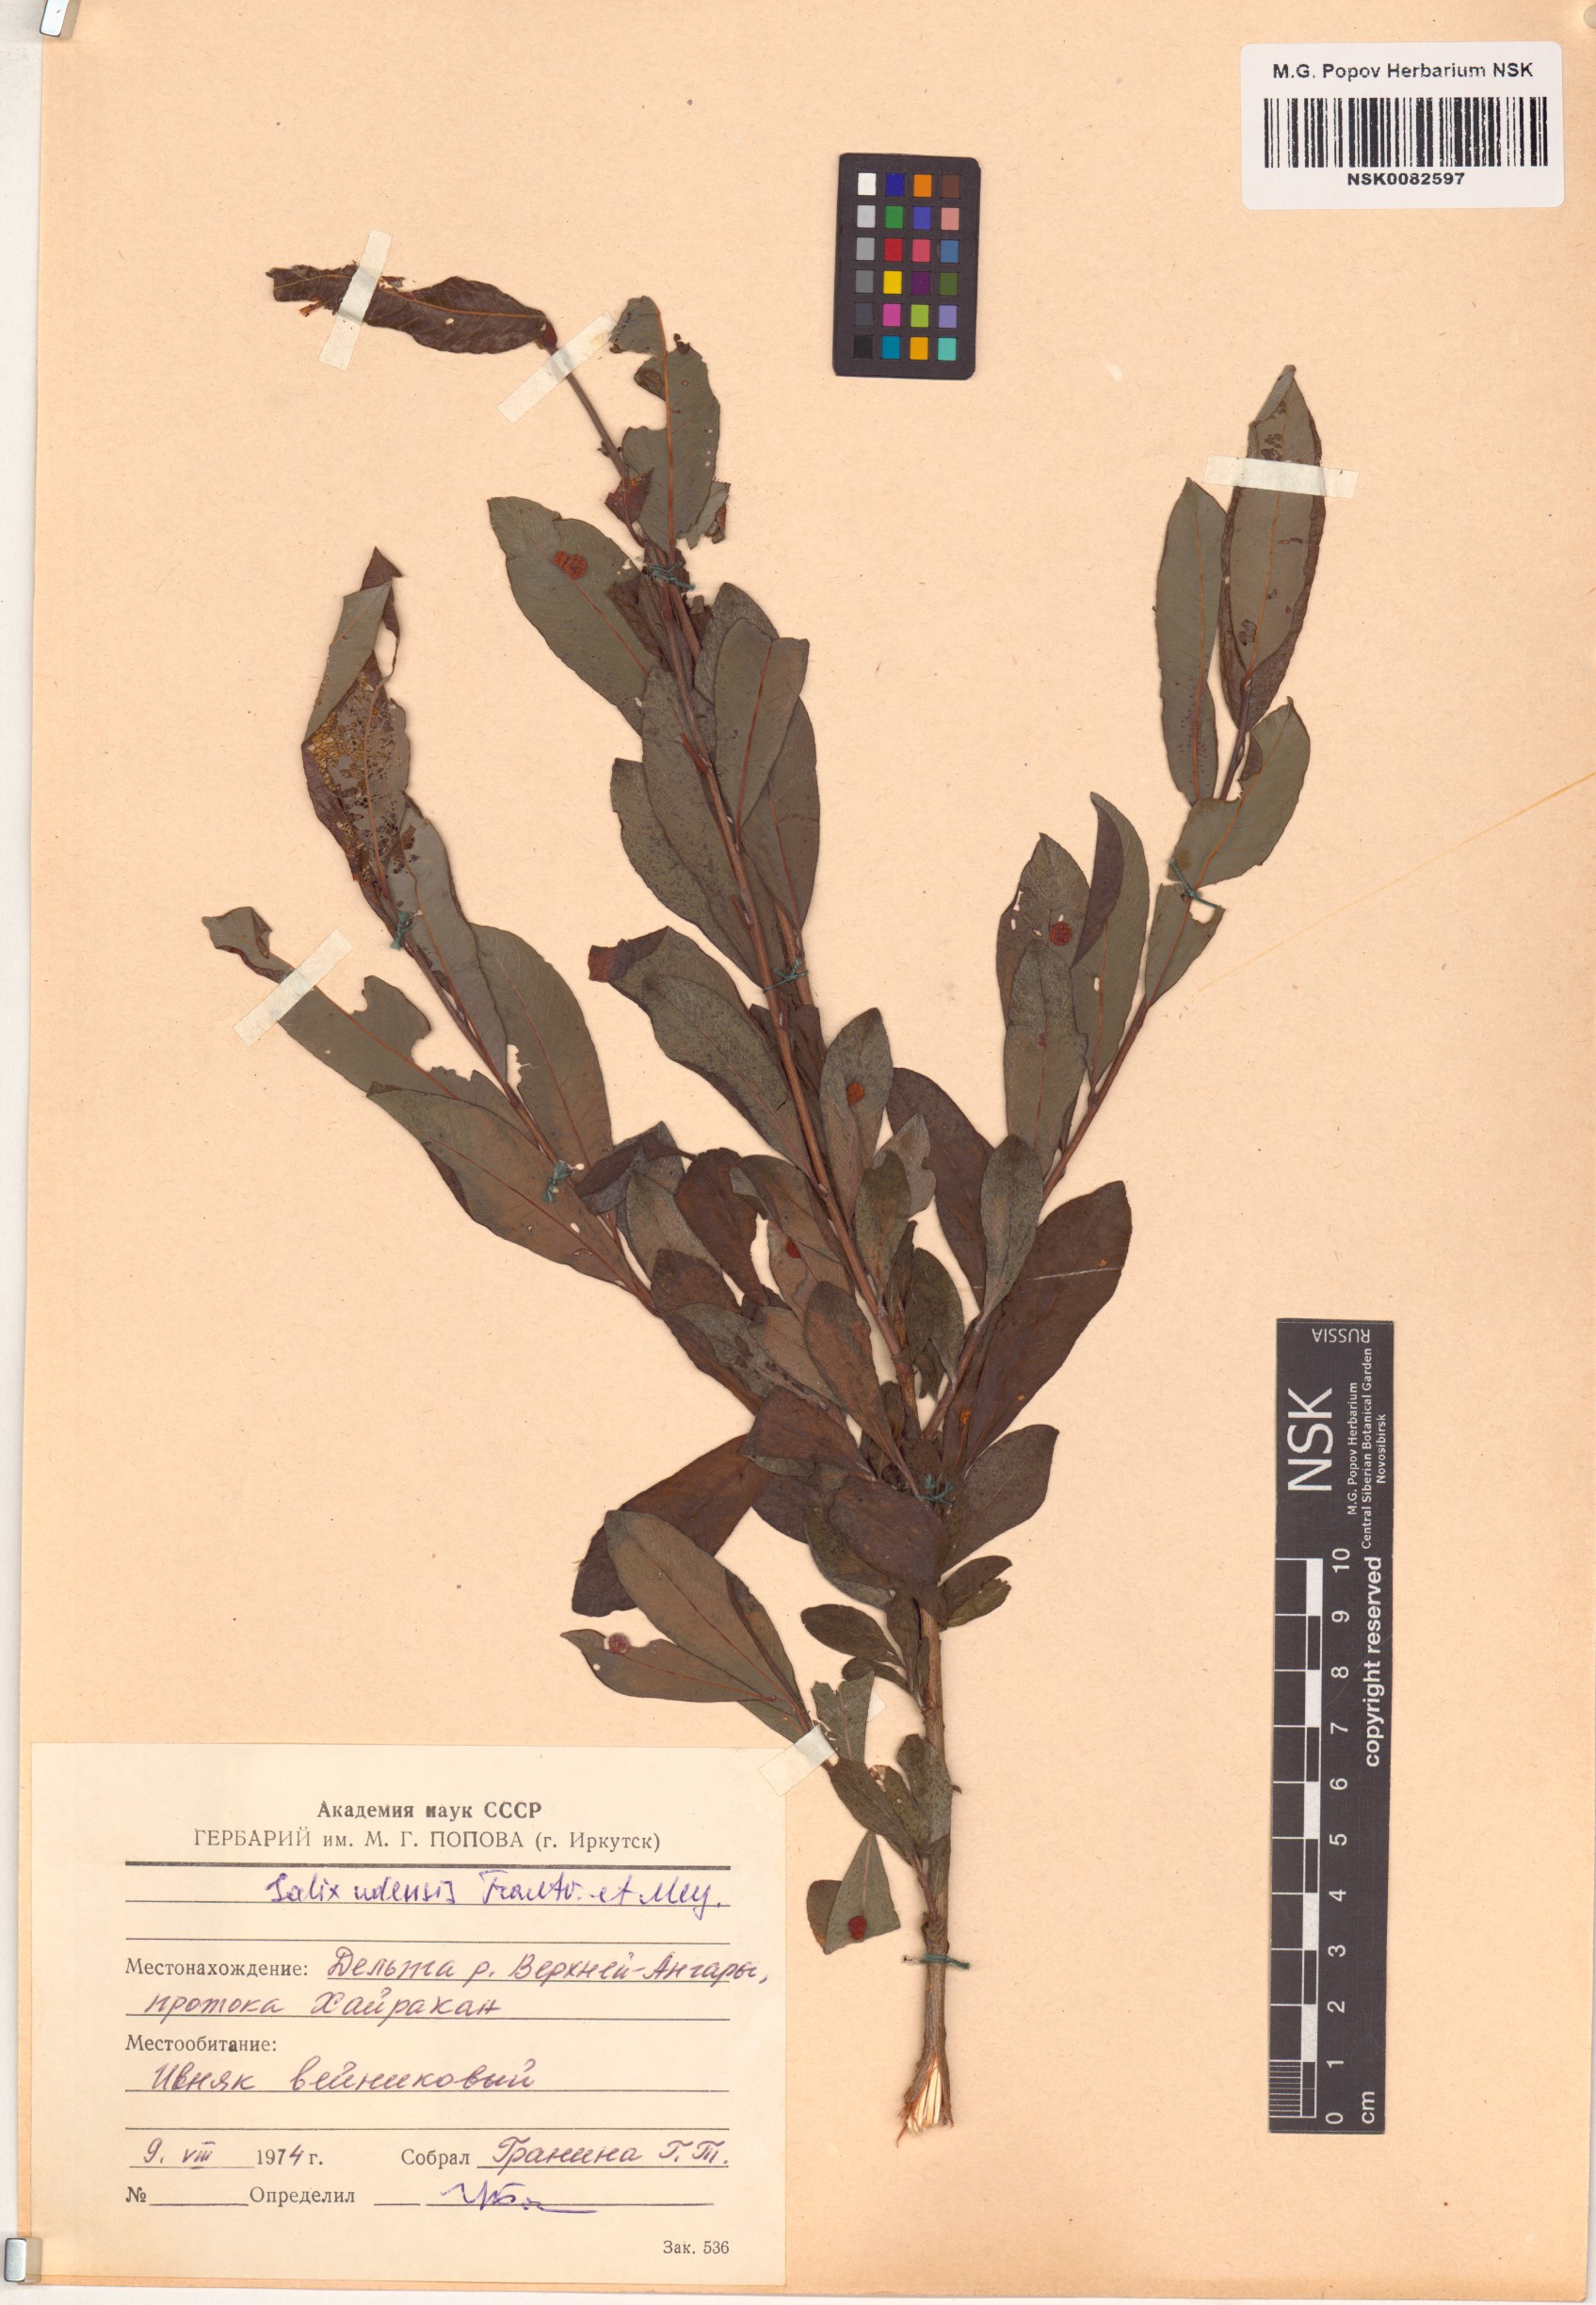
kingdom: Plantae
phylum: Tracheophyta
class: Magnoliopsida
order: Malpighiales
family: Salicaceae
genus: Salix
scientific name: Salix udensis
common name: Sachalin willow
